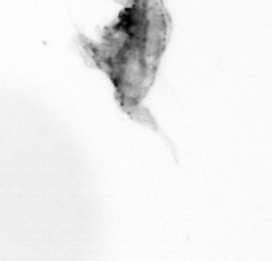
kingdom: Animalia
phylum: Arthropoda
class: Copepoda
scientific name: Copepoda
